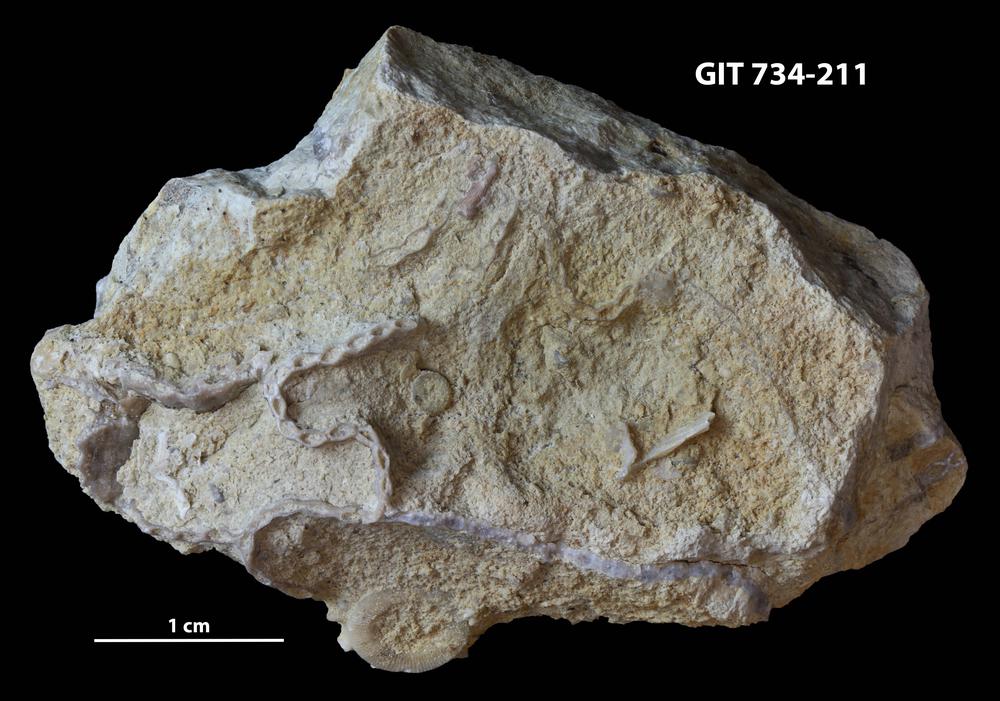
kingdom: Animalia
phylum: Cnidaria
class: Anthozoa
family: Cateniporidae
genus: Catenipora
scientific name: Catenipora
